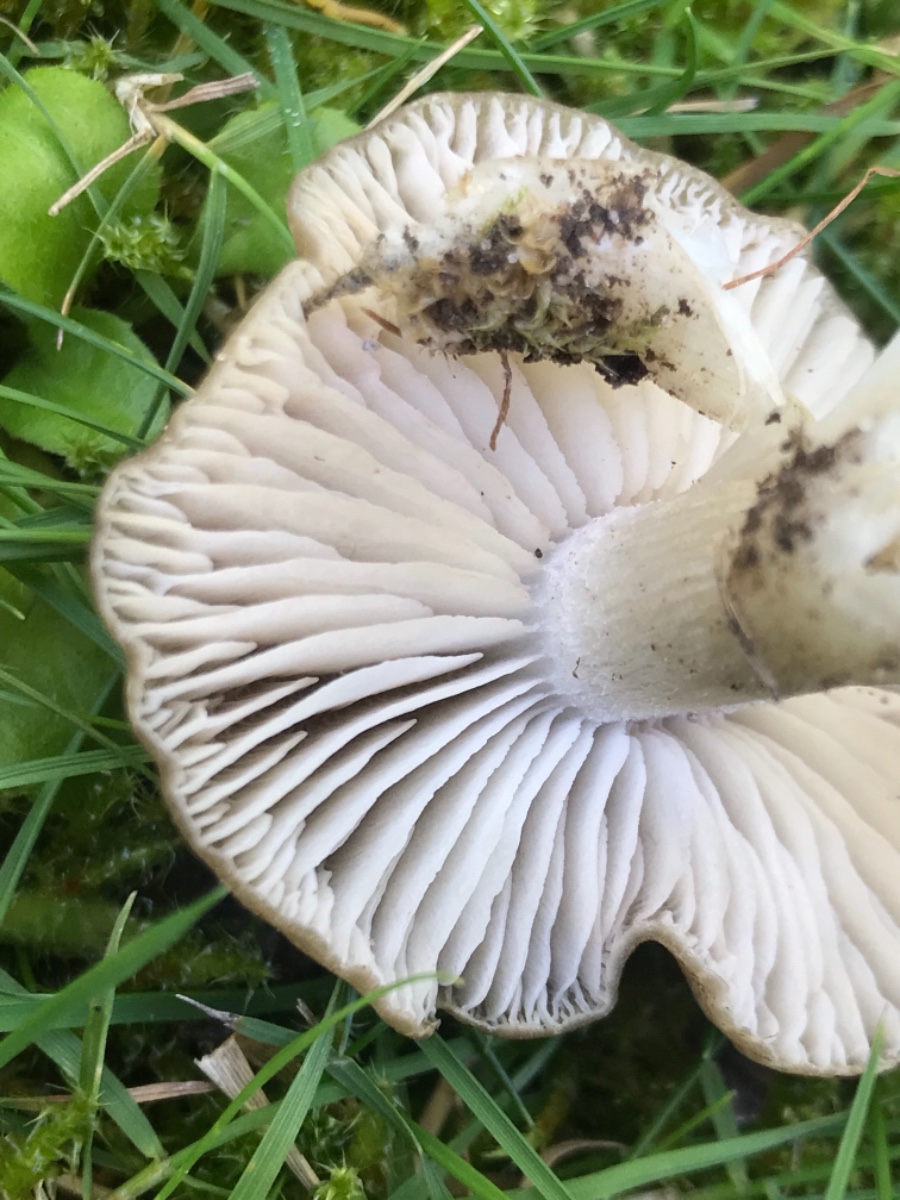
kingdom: Fungi
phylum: Basidiomycota
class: Agaricomycetes
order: Agaricales
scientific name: Agaricales
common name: champignonordenen
